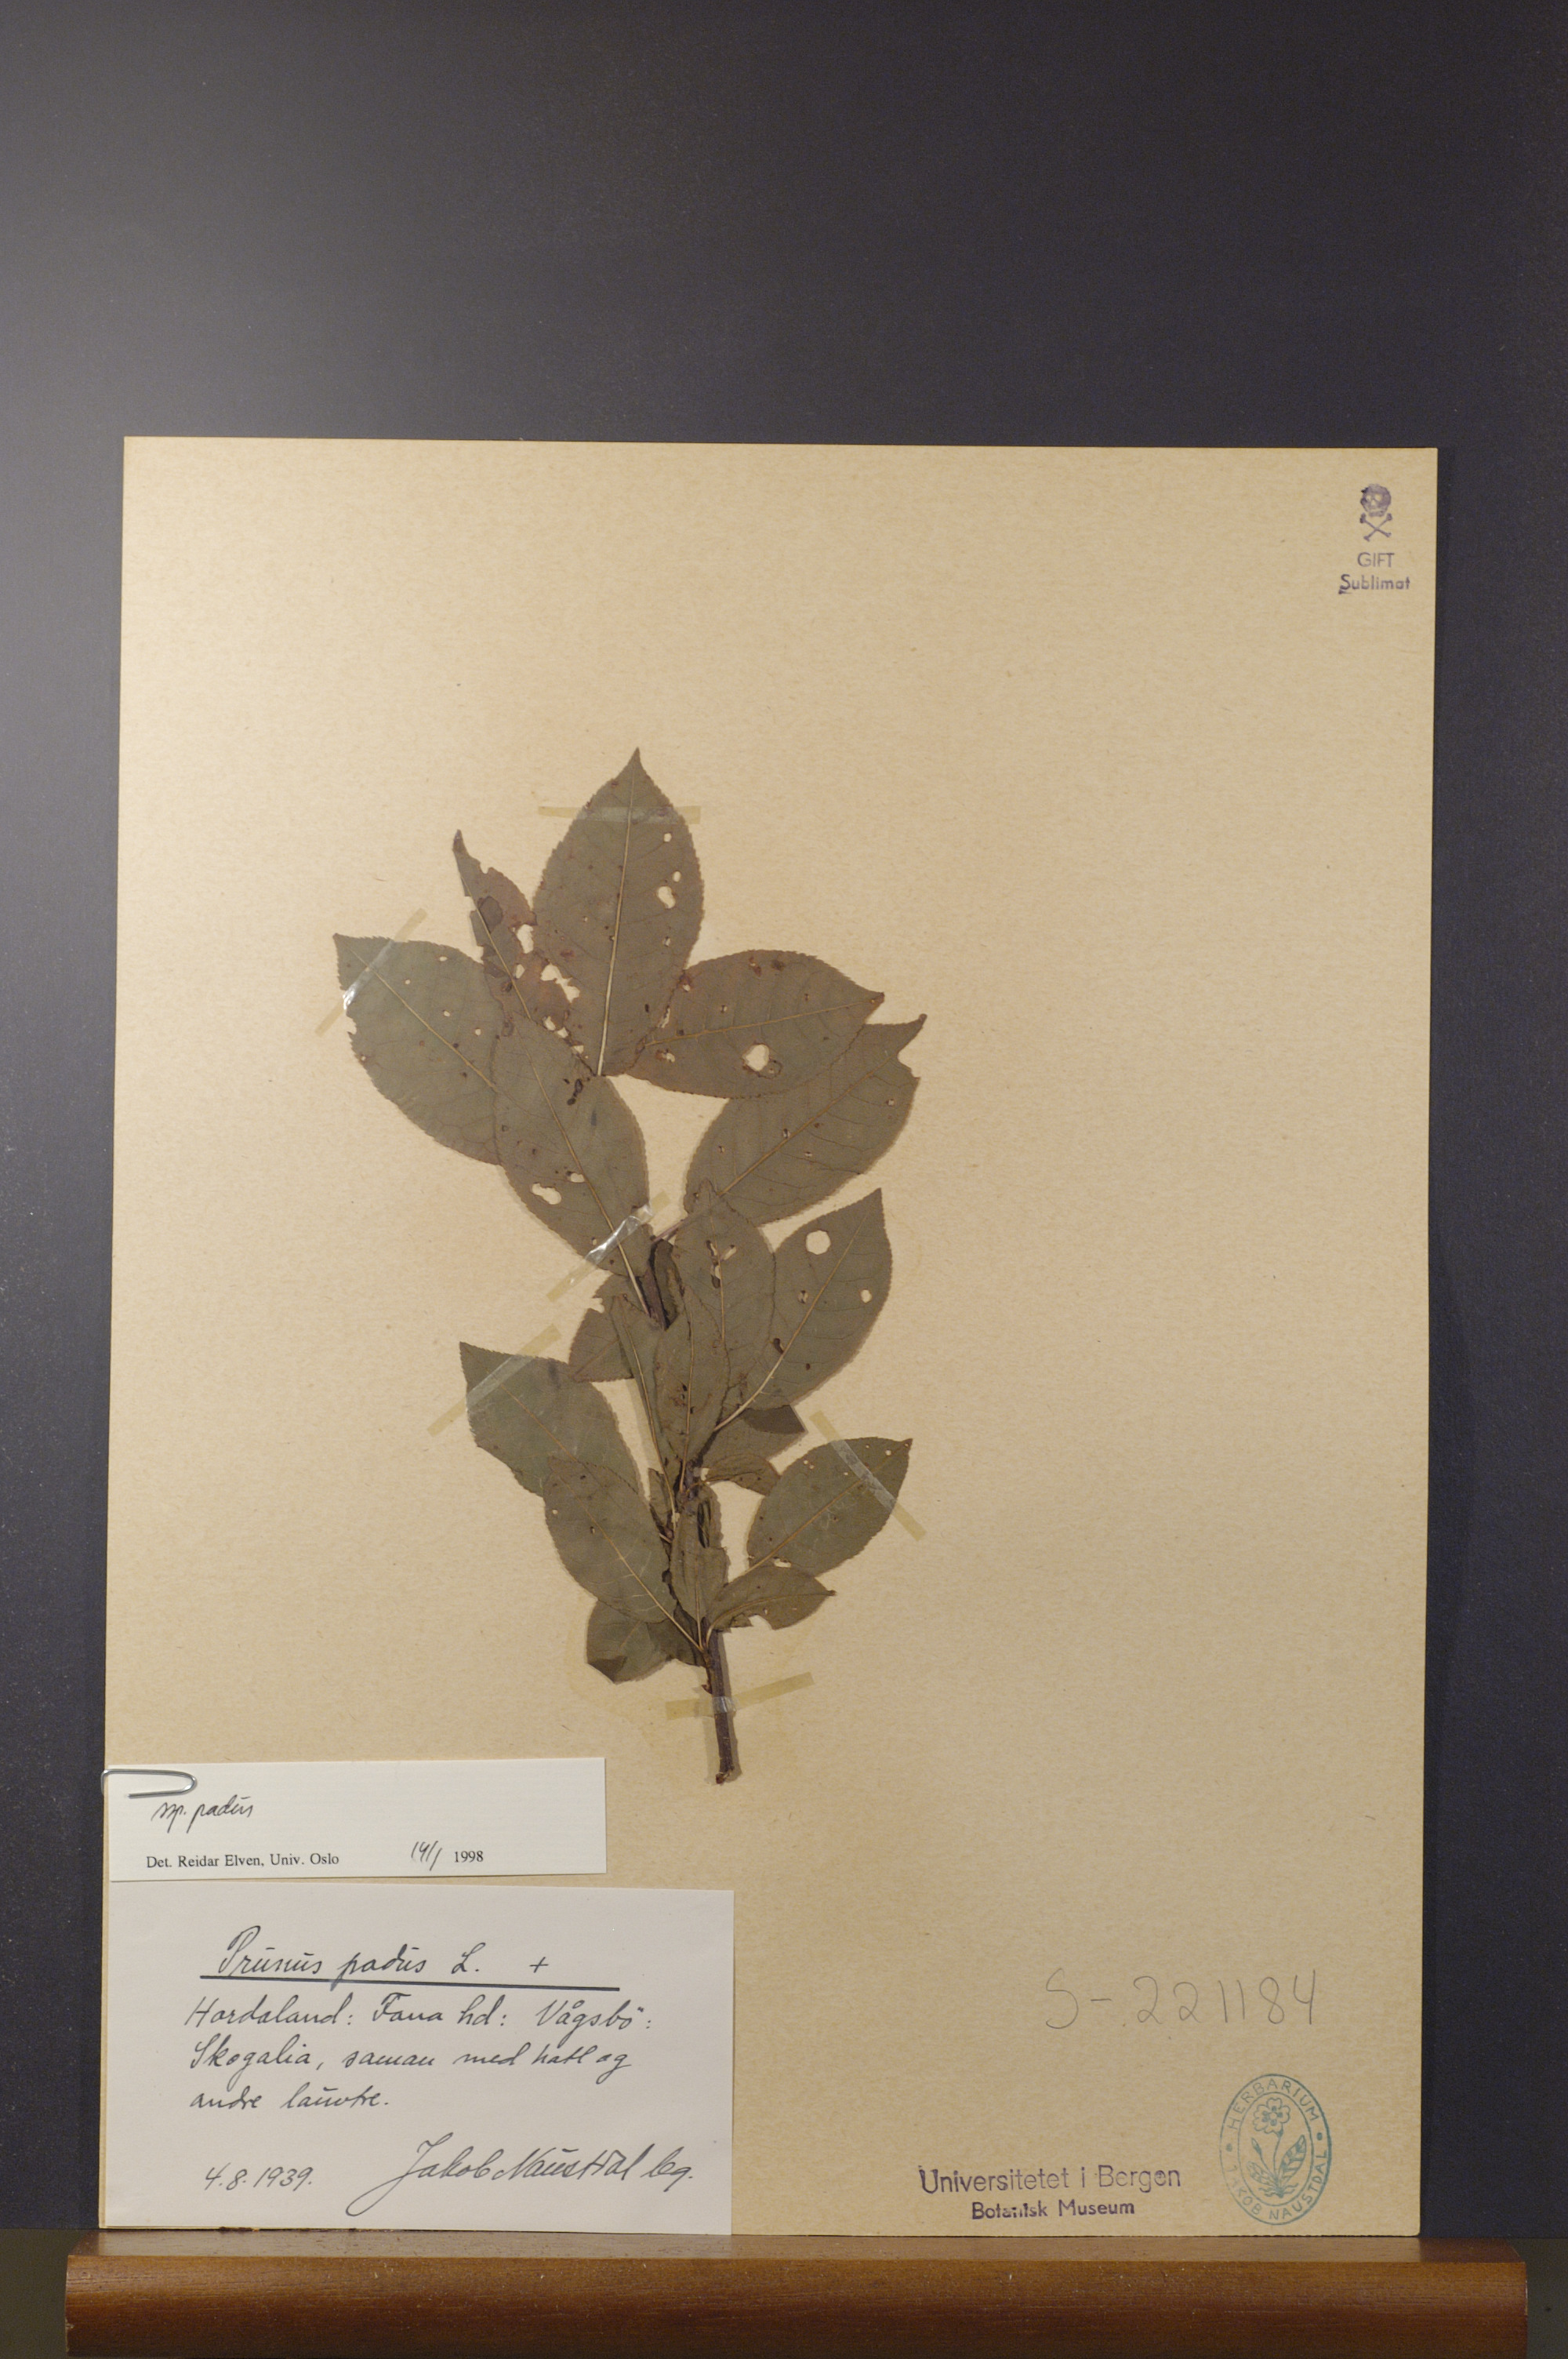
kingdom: Plantae
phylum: Tracheophyta
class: Magnoliopsida
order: Rosales
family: Rosaceae
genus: Prunus
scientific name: Prunus padus
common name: Bird cherry
